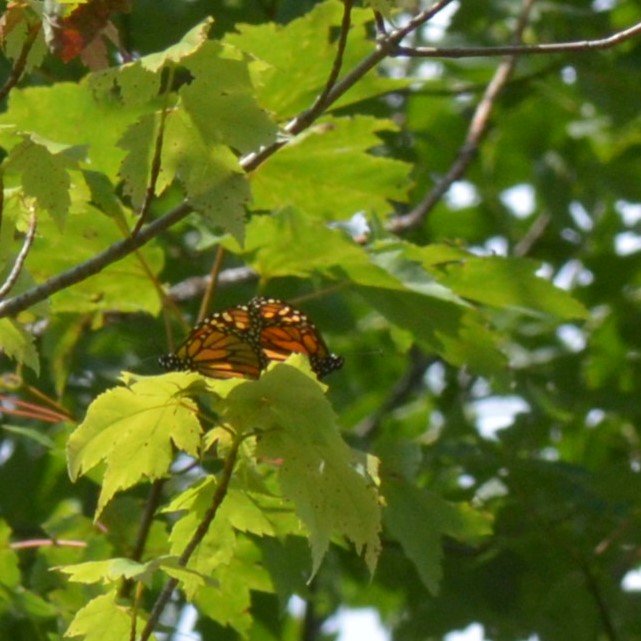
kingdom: Animalia
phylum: Arthropoda
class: Insecta
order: Lepidoptera
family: Nymphalidae
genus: Danaus
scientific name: Danaus plexippus
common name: Monarch
